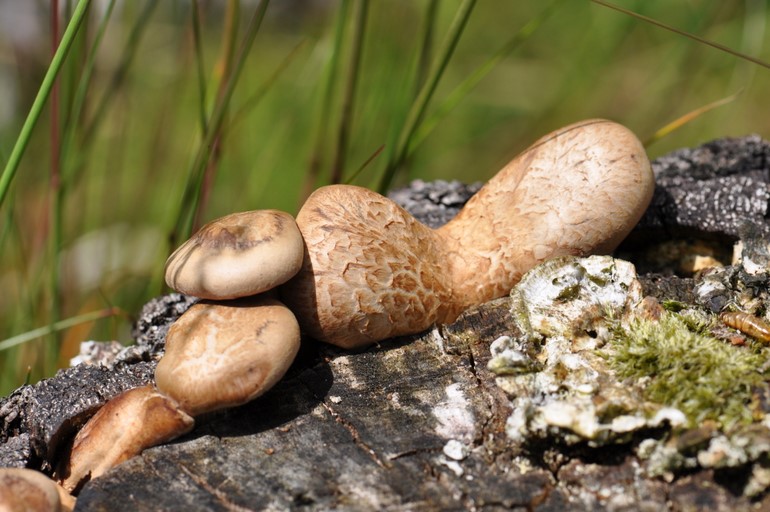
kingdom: Fungi
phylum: Basidiomycota
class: Agaricomycetes
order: Polyporales
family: Panaceae
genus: Panus
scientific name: Panus conchatus
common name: filtstokket læderhat
